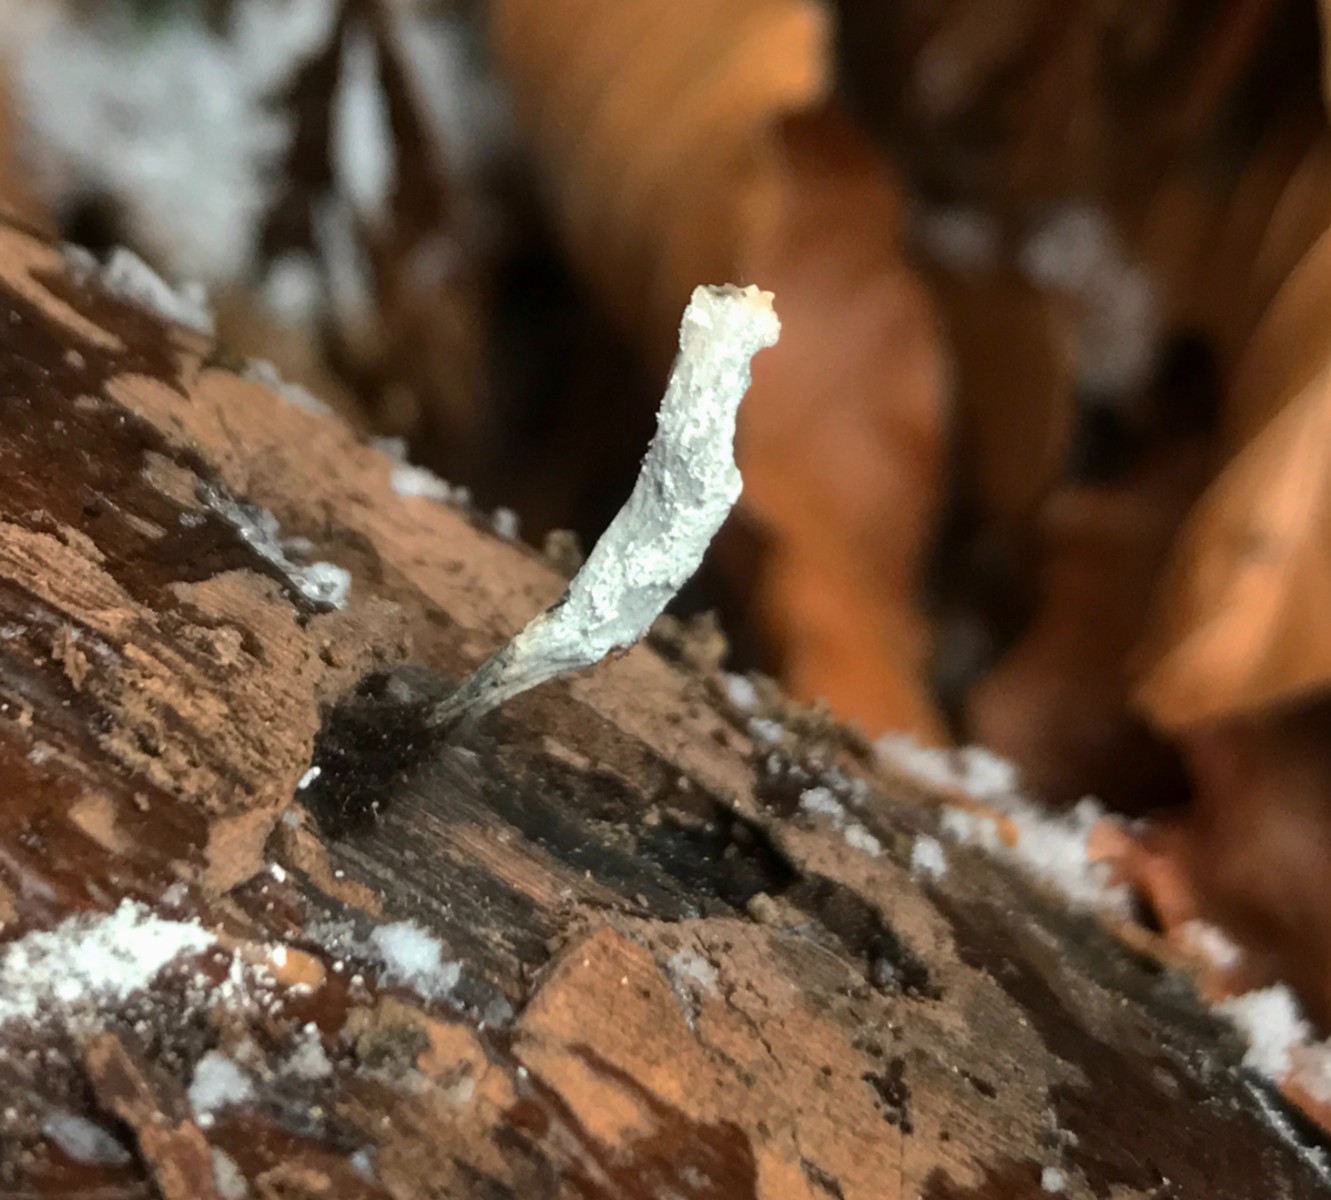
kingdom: Fungi
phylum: Ascomycota
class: Sordariomycetes
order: Xylariales
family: Xylariaceae
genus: Xylaria
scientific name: Xylaria hypoxylon
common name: grenet stødsvamp
